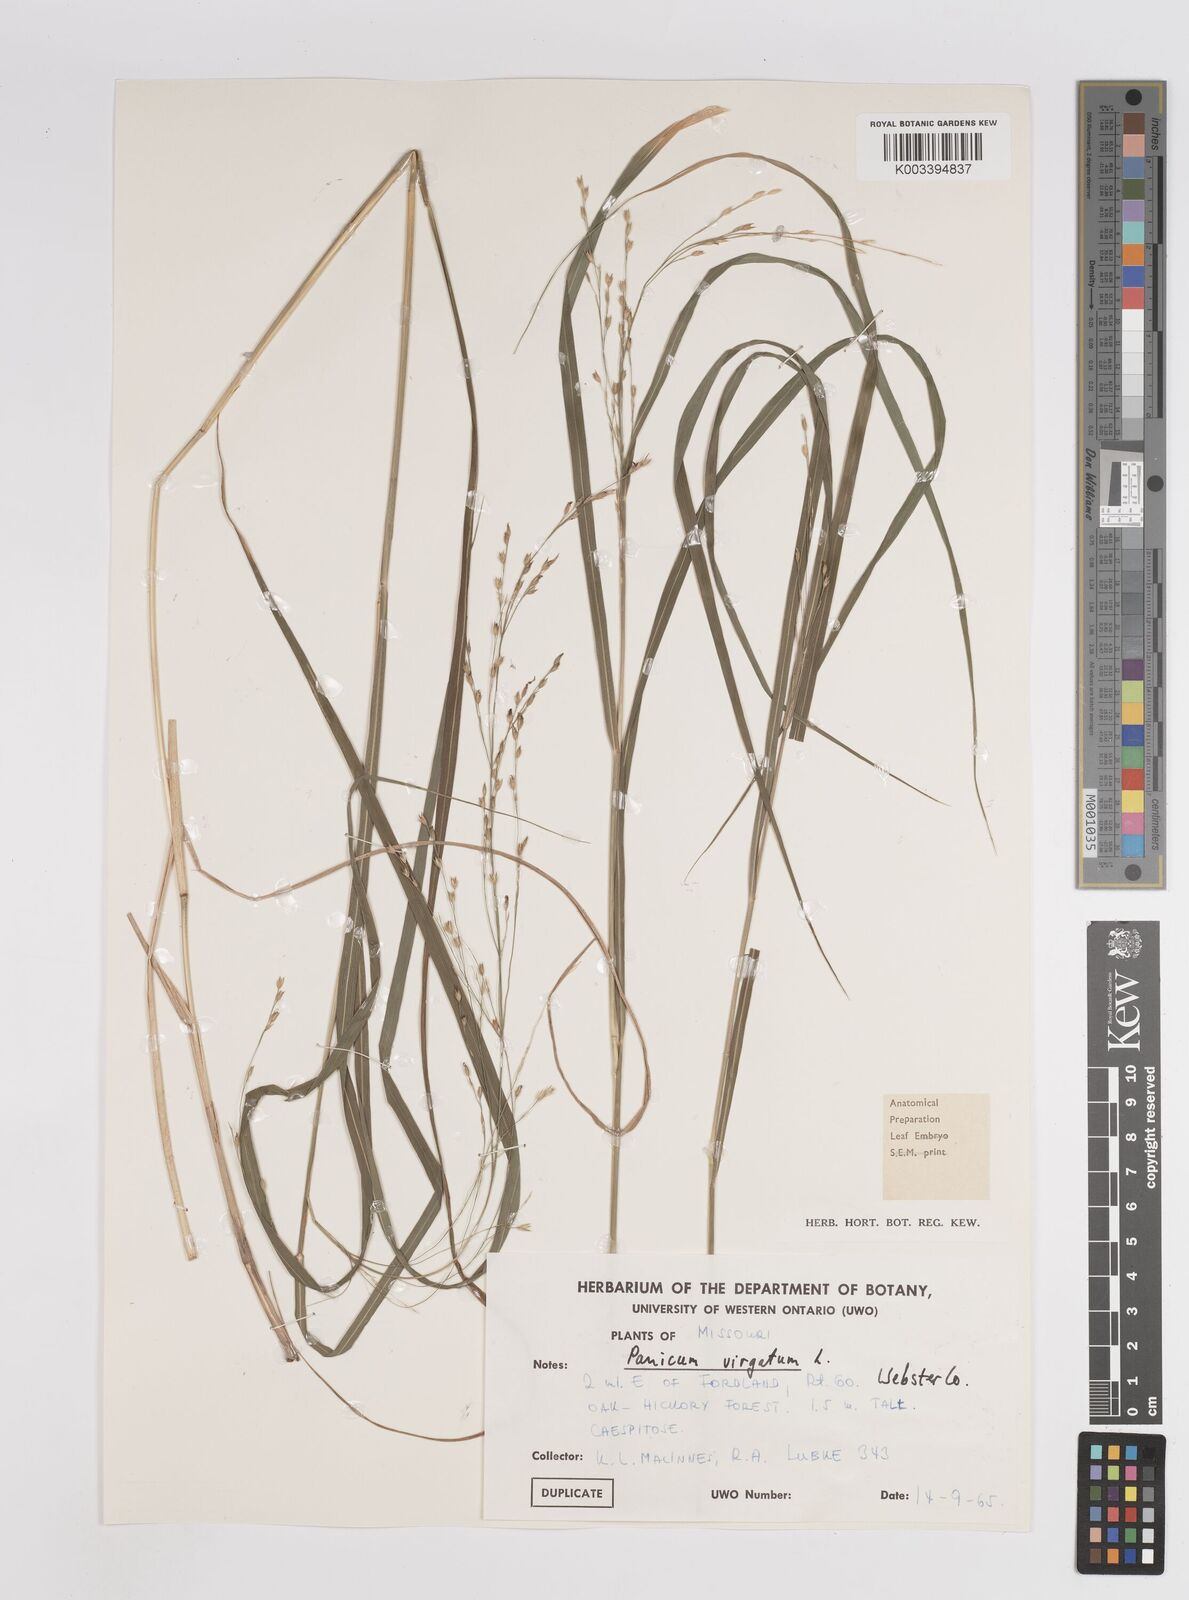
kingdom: Plantae
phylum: Tracheophyta
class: Liliopsida
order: Poales
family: Poaceae
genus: Panicum
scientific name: Panicum virgatum
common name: Switchgrass
